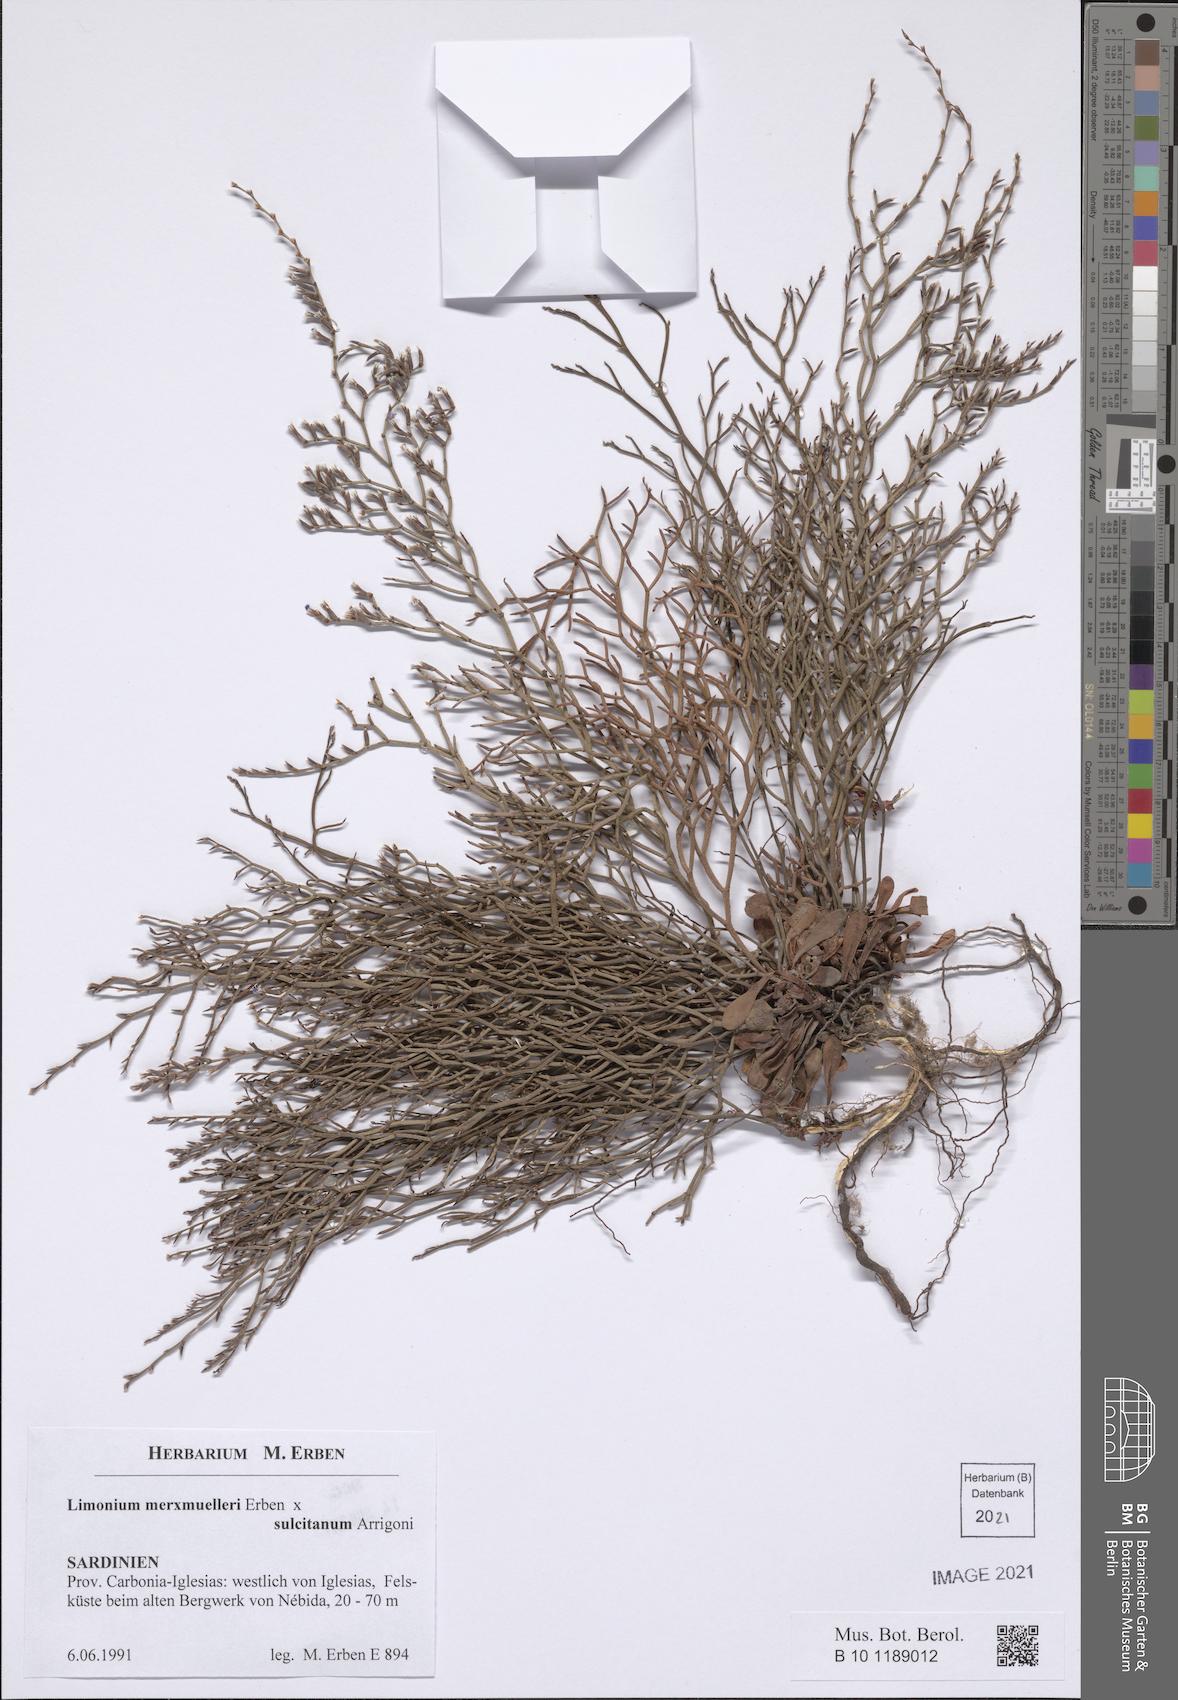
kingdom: Plantae
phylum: Tracheophyta
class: Magnoliopsida
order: Caryophyllales
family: Plumbaginaceae
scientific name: Plumbaginaceae
